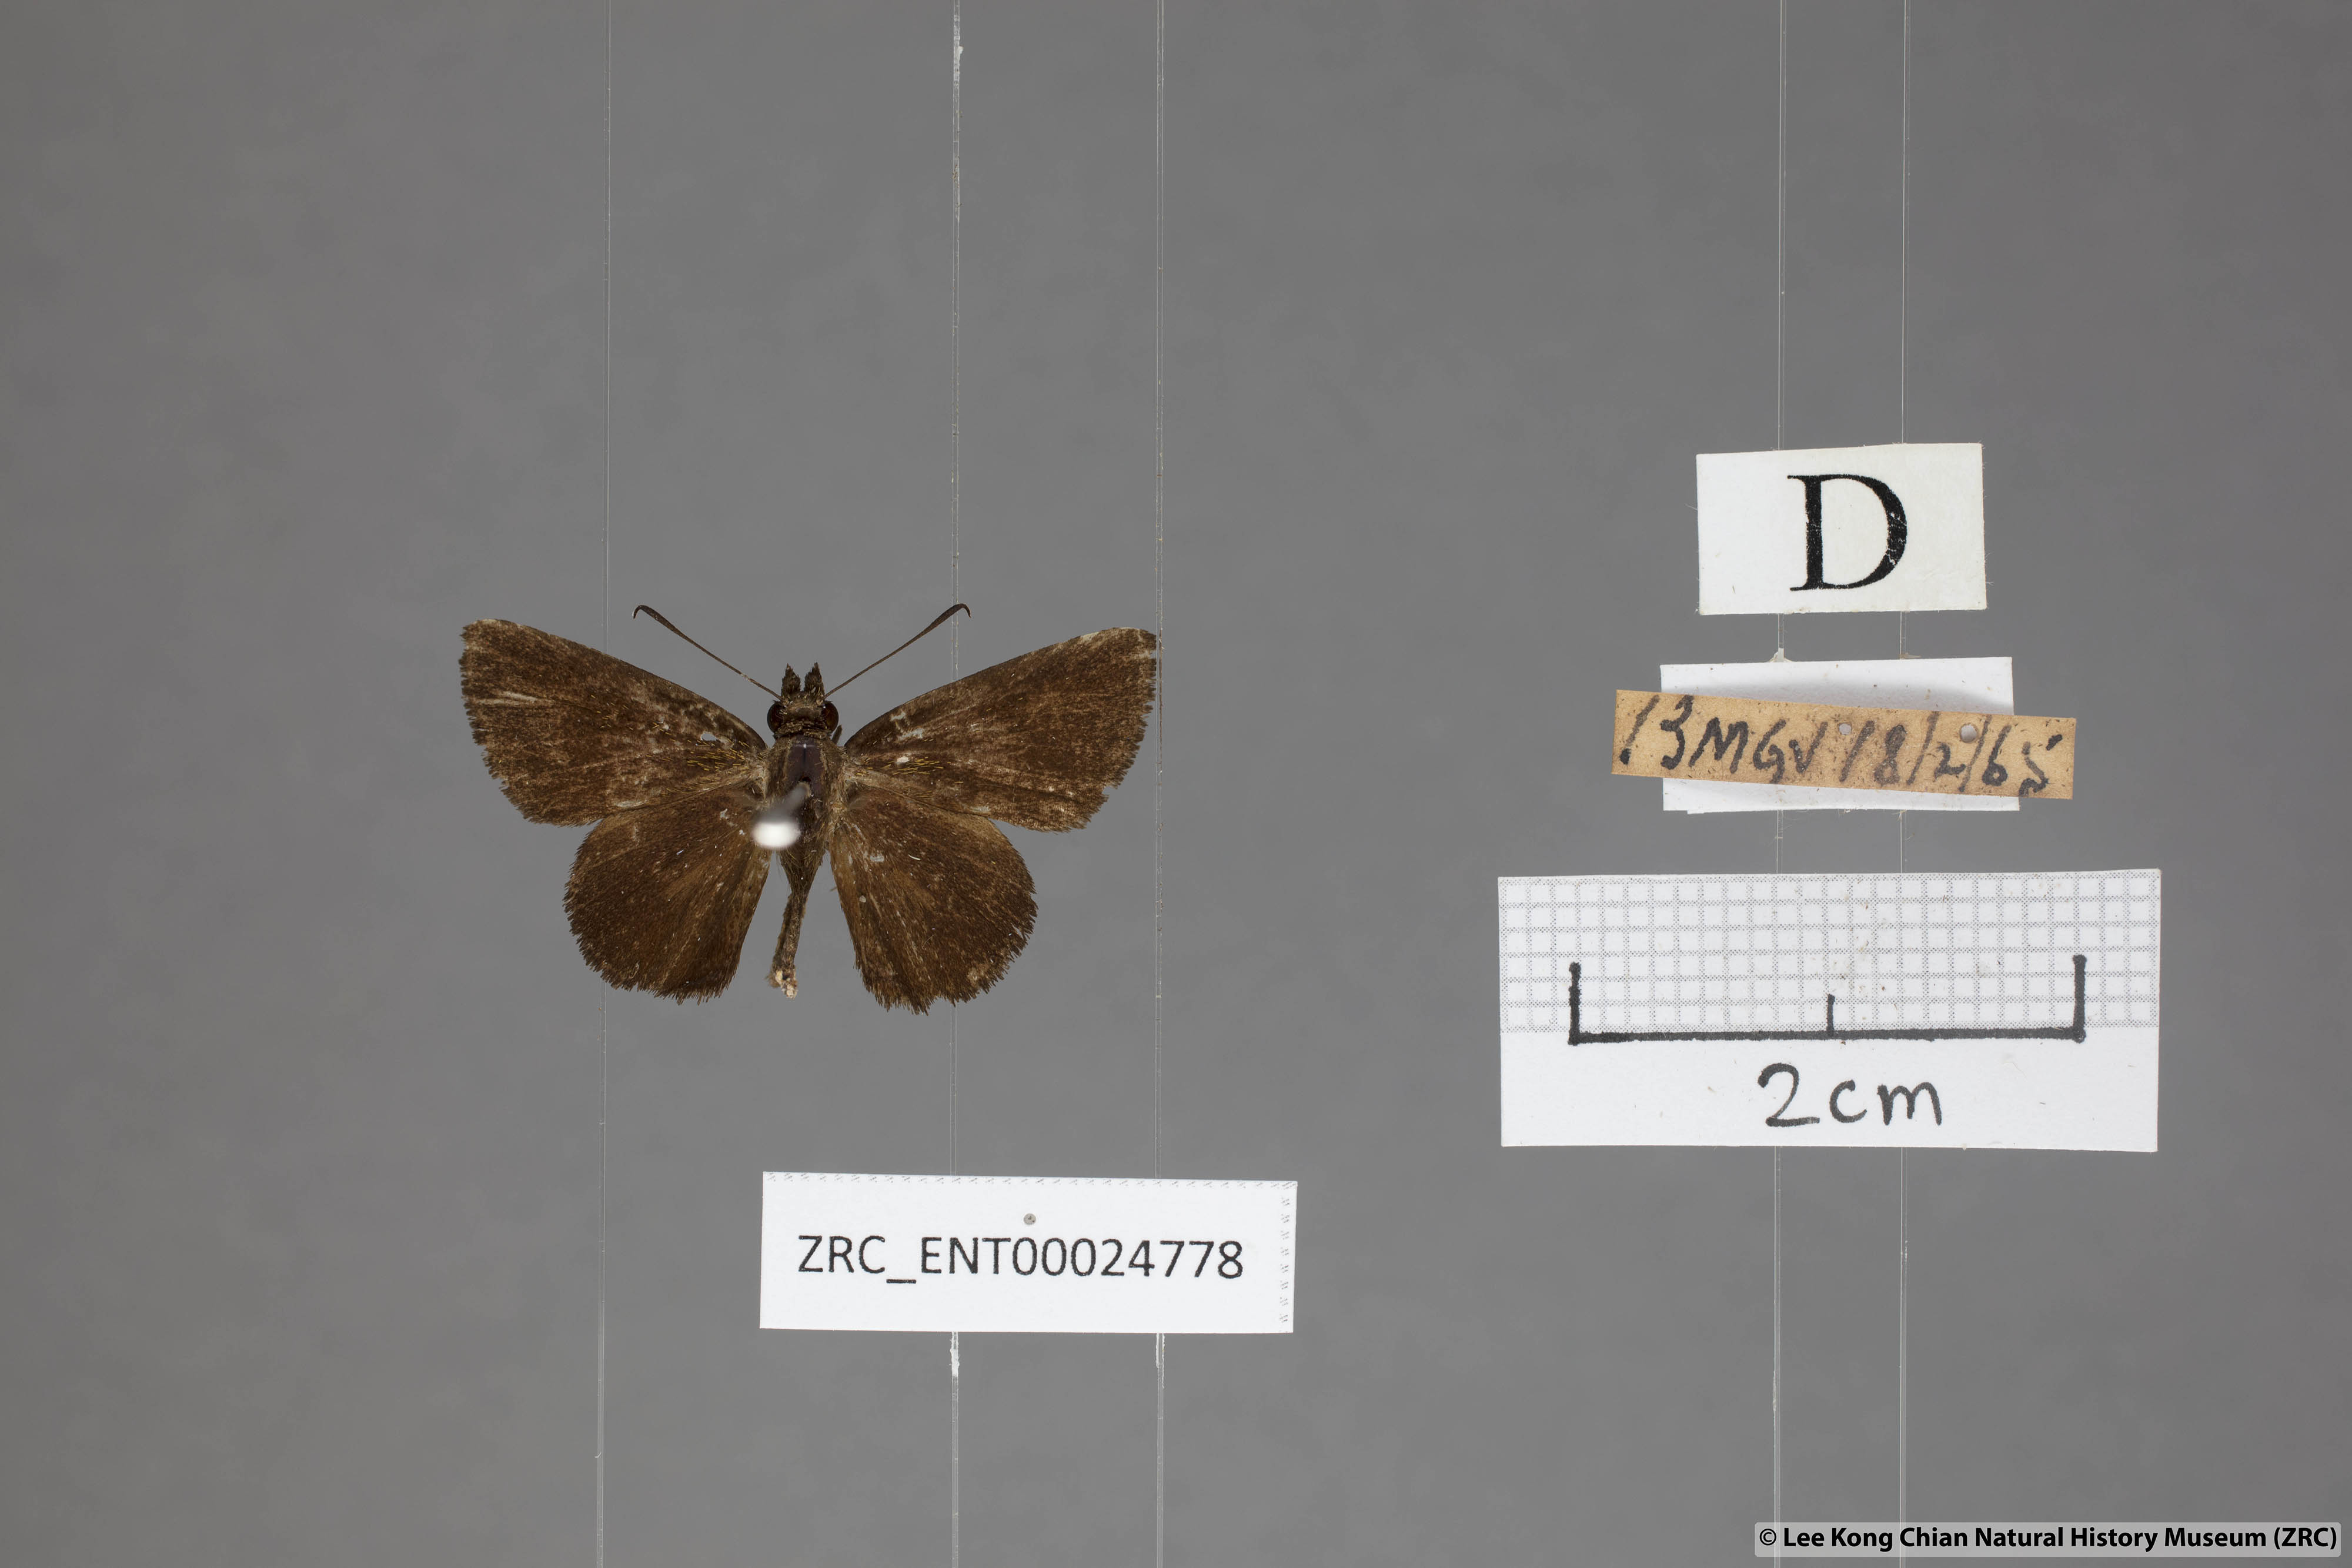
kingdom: Animalia
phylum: Arthropoda
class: Insecta
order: Lepidoptera
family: Hesperiidae
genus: Iambrix
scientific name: Iambrix
